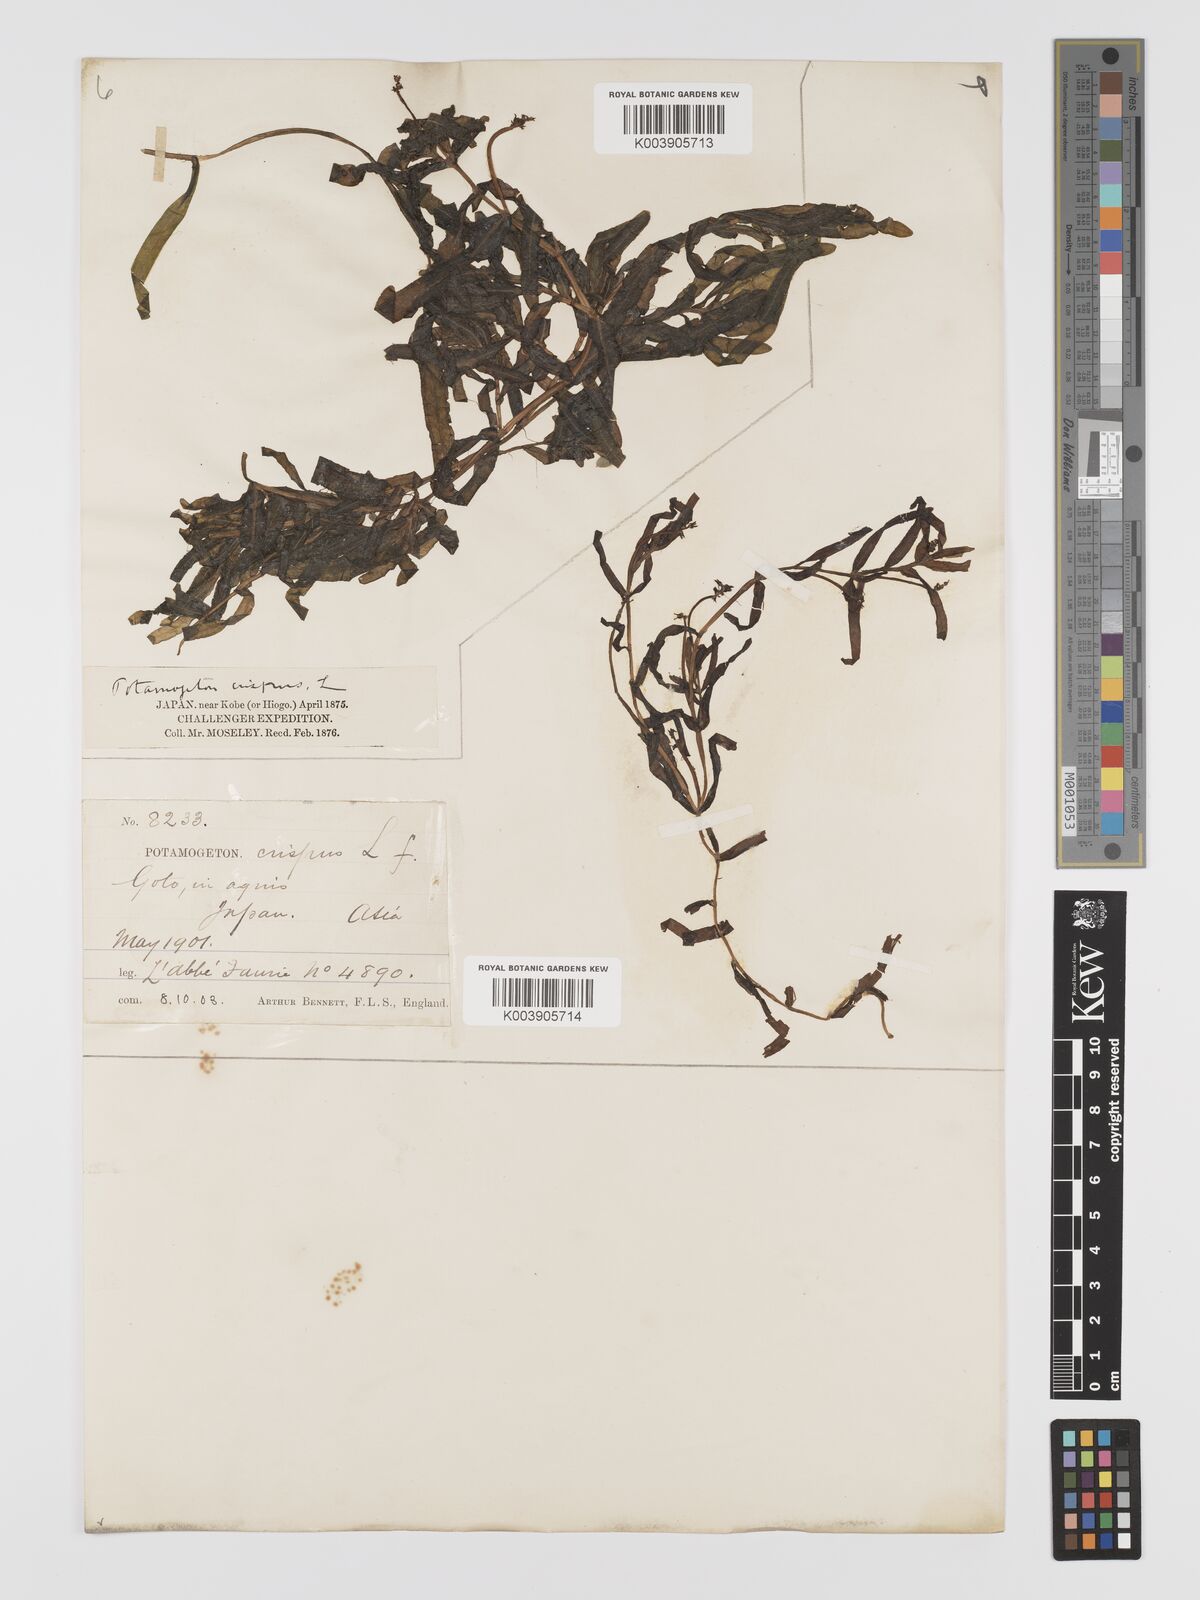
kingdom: Plantae
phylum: Tracheophyta
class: Liliopsida
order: Alismatales
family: Potamogetonaceae
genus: Potamogeton
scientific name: Potamogeton crispus
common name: Curled pondweed
